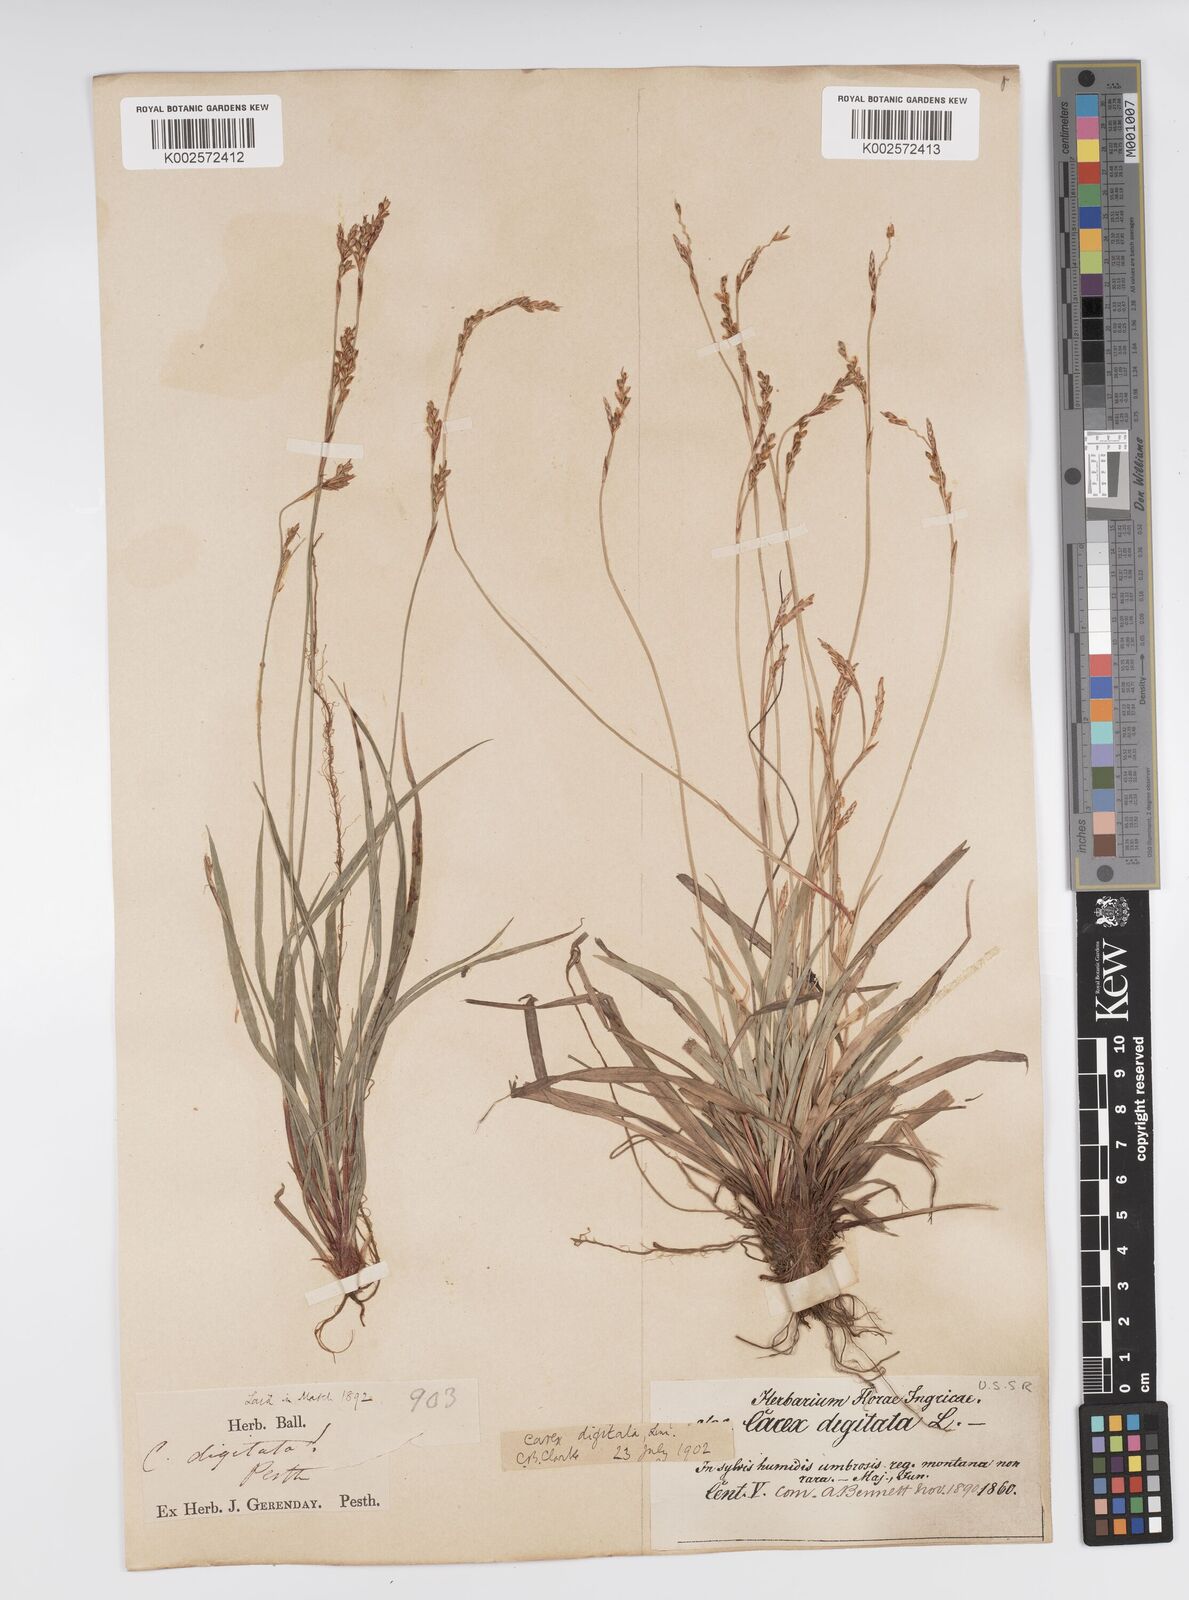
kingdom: Plantae
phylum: Tracheophyta
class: Liliopsida
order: Poales
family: Cyperaceae
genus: Carex
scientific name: Carex digitata
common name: Fingered sedge
